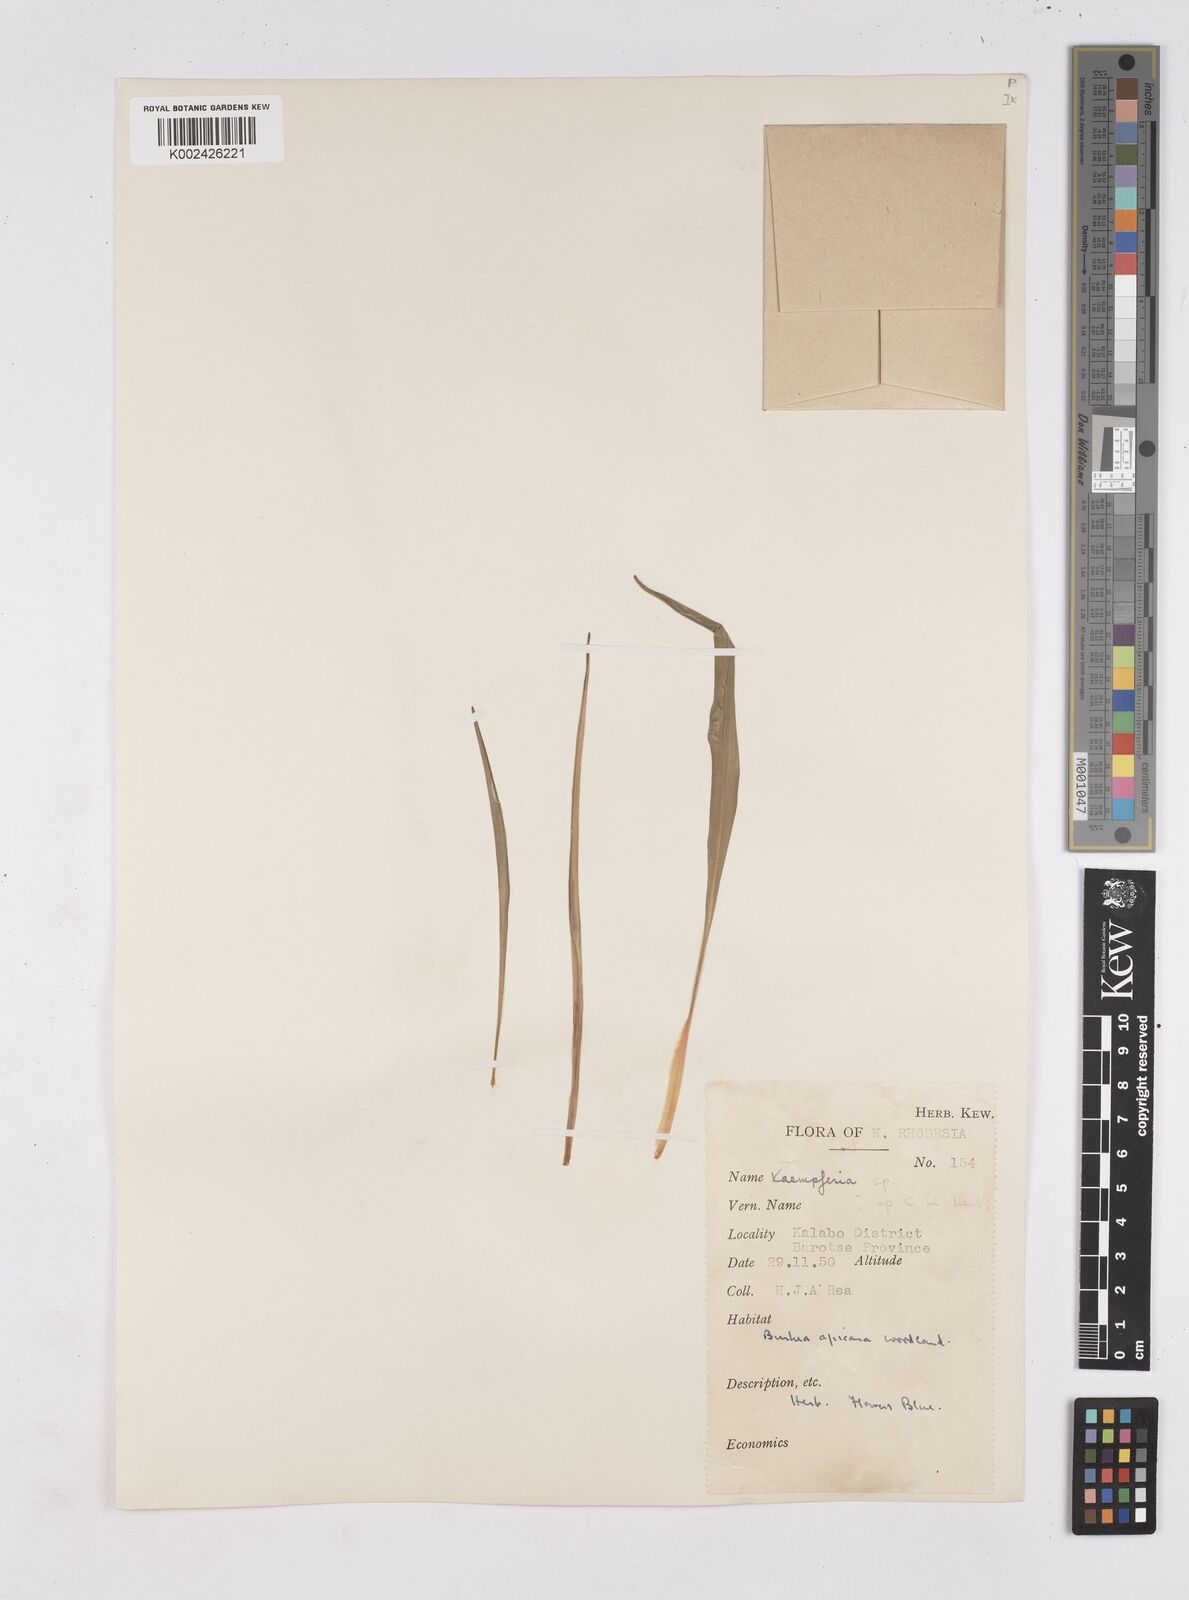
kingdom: Plantae
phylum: Tracheophyta
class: Liliopsida
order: Zingiberales
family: Zingiberaceae
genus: Siphonochilus
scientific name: Siphonochilus
